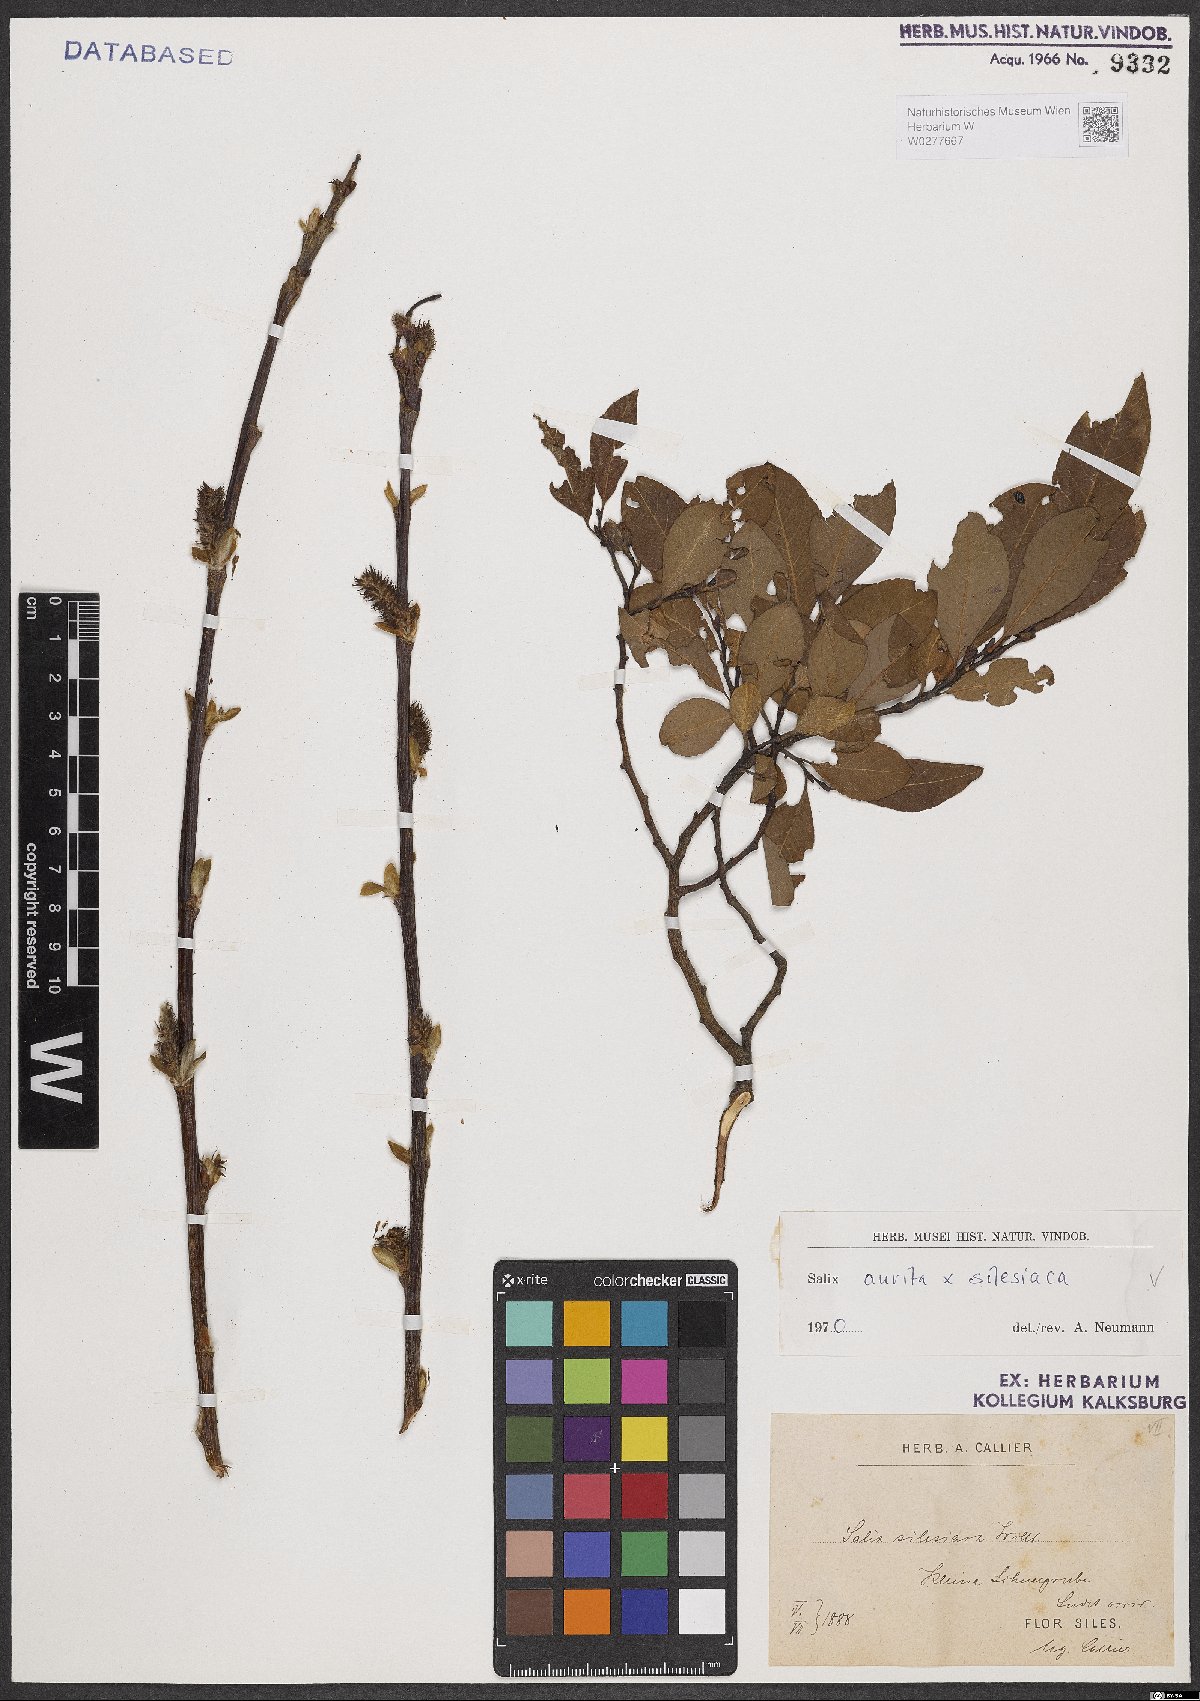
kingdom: Plantae
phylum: Tracheophyta
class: Magnoliopsida
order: Malpighiales
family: Salicaceae
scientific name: Salicaceae
